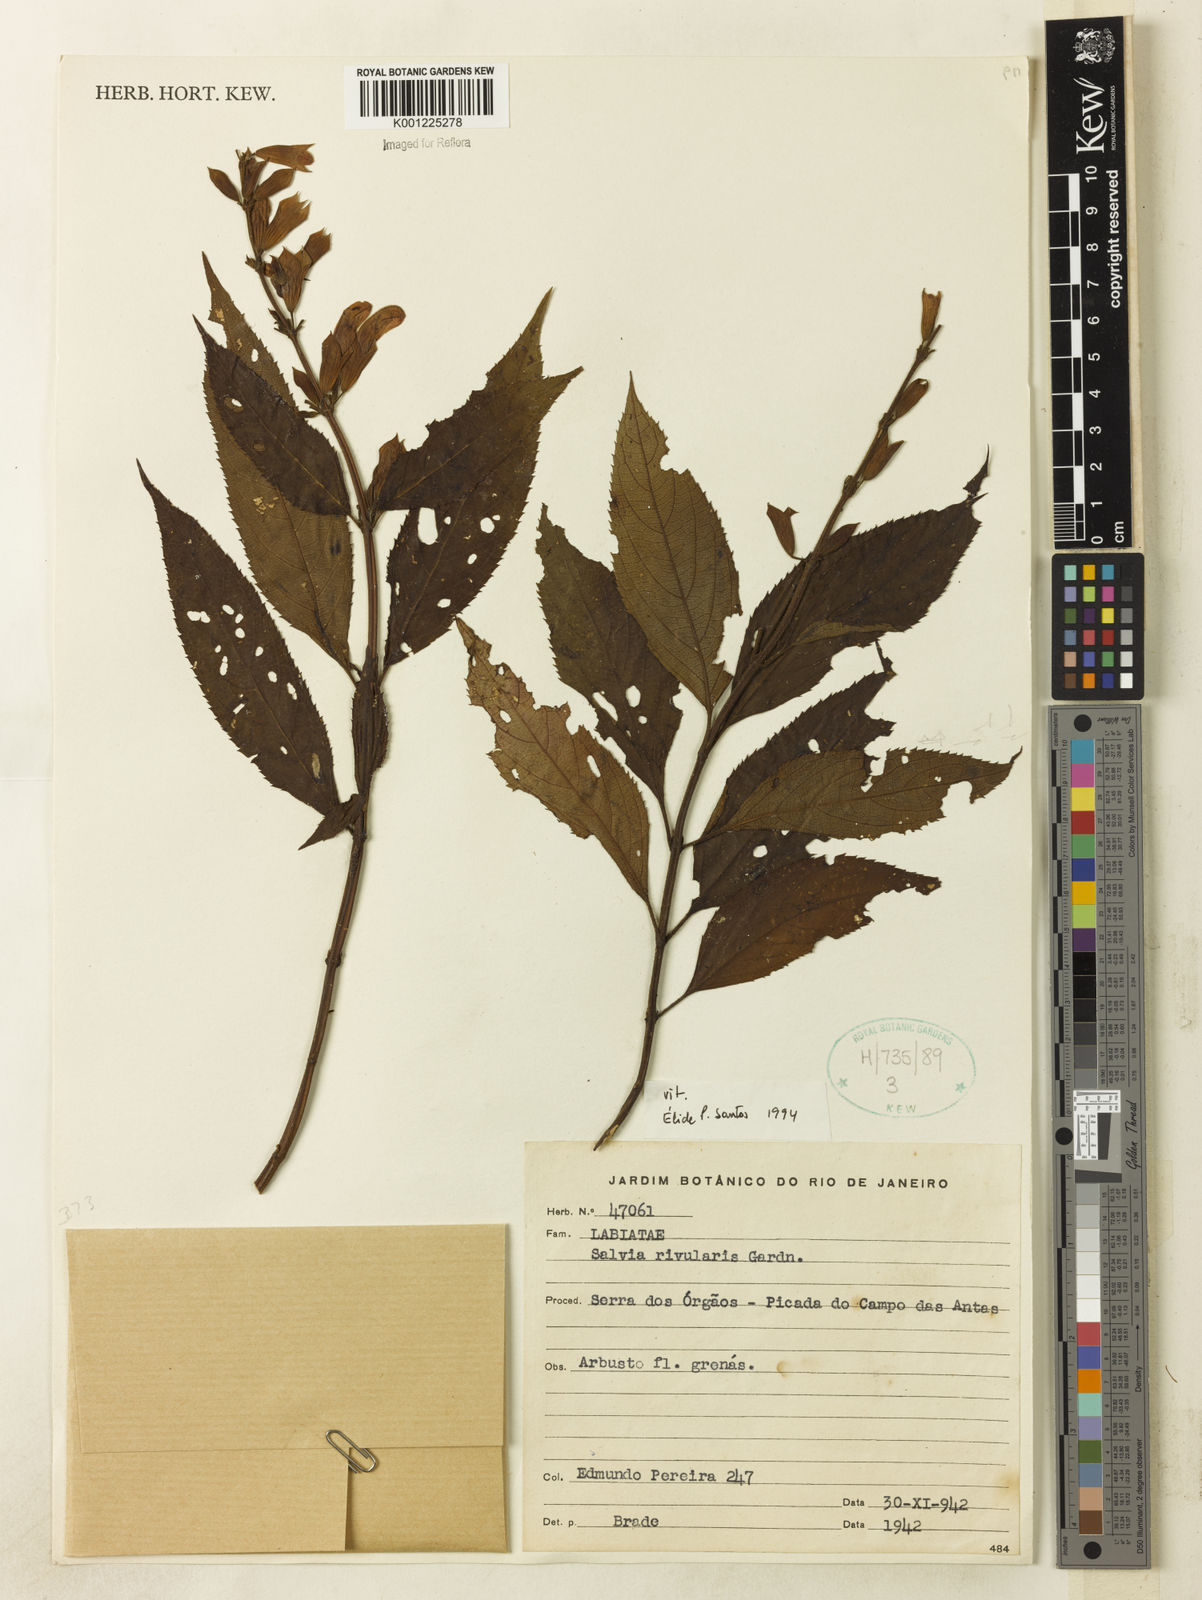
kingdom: Plantae
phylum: Tracheophyta
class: Magnoliopsida
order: Lamiales
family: Lamiaceae
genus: Salvia
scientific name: Salvia rivularis
